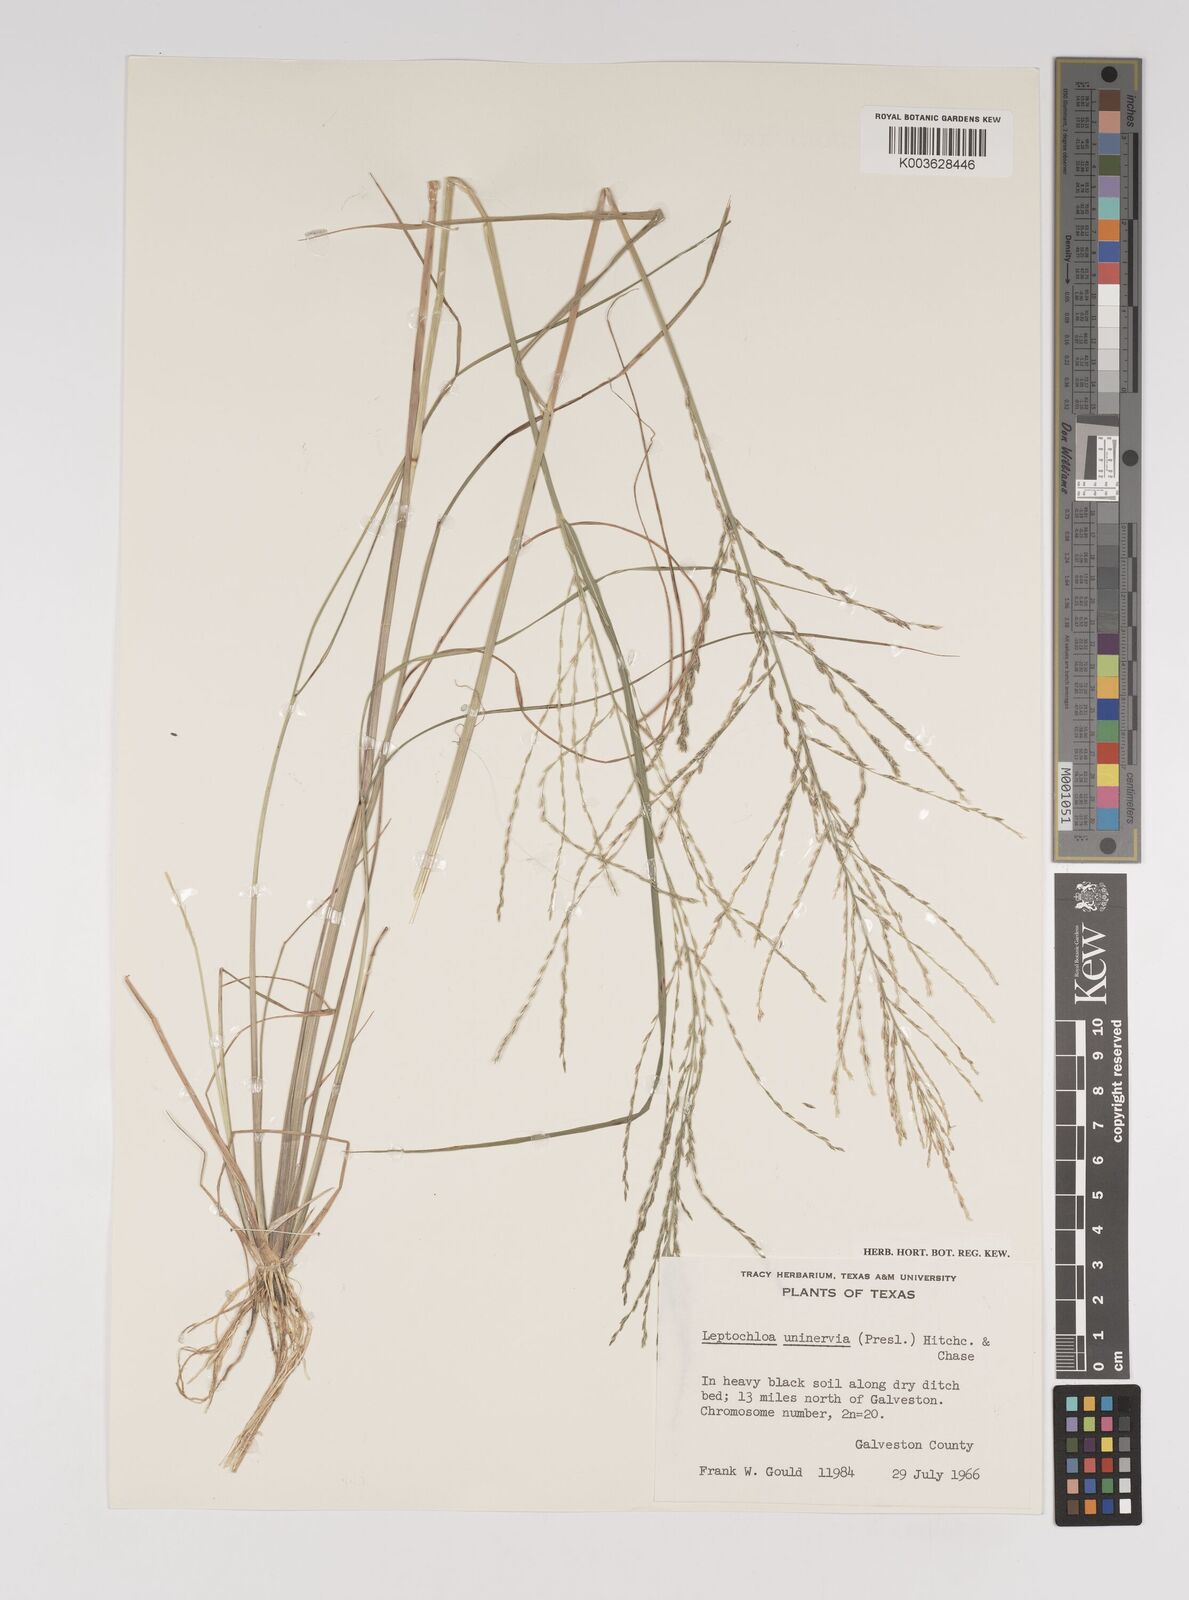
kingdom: Plantae
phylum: Tracheophyta
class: Liliopsida
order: Poales
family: Poaceae
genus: Diplachne
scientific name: Diplachne fusca
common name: Brown beetle grass
